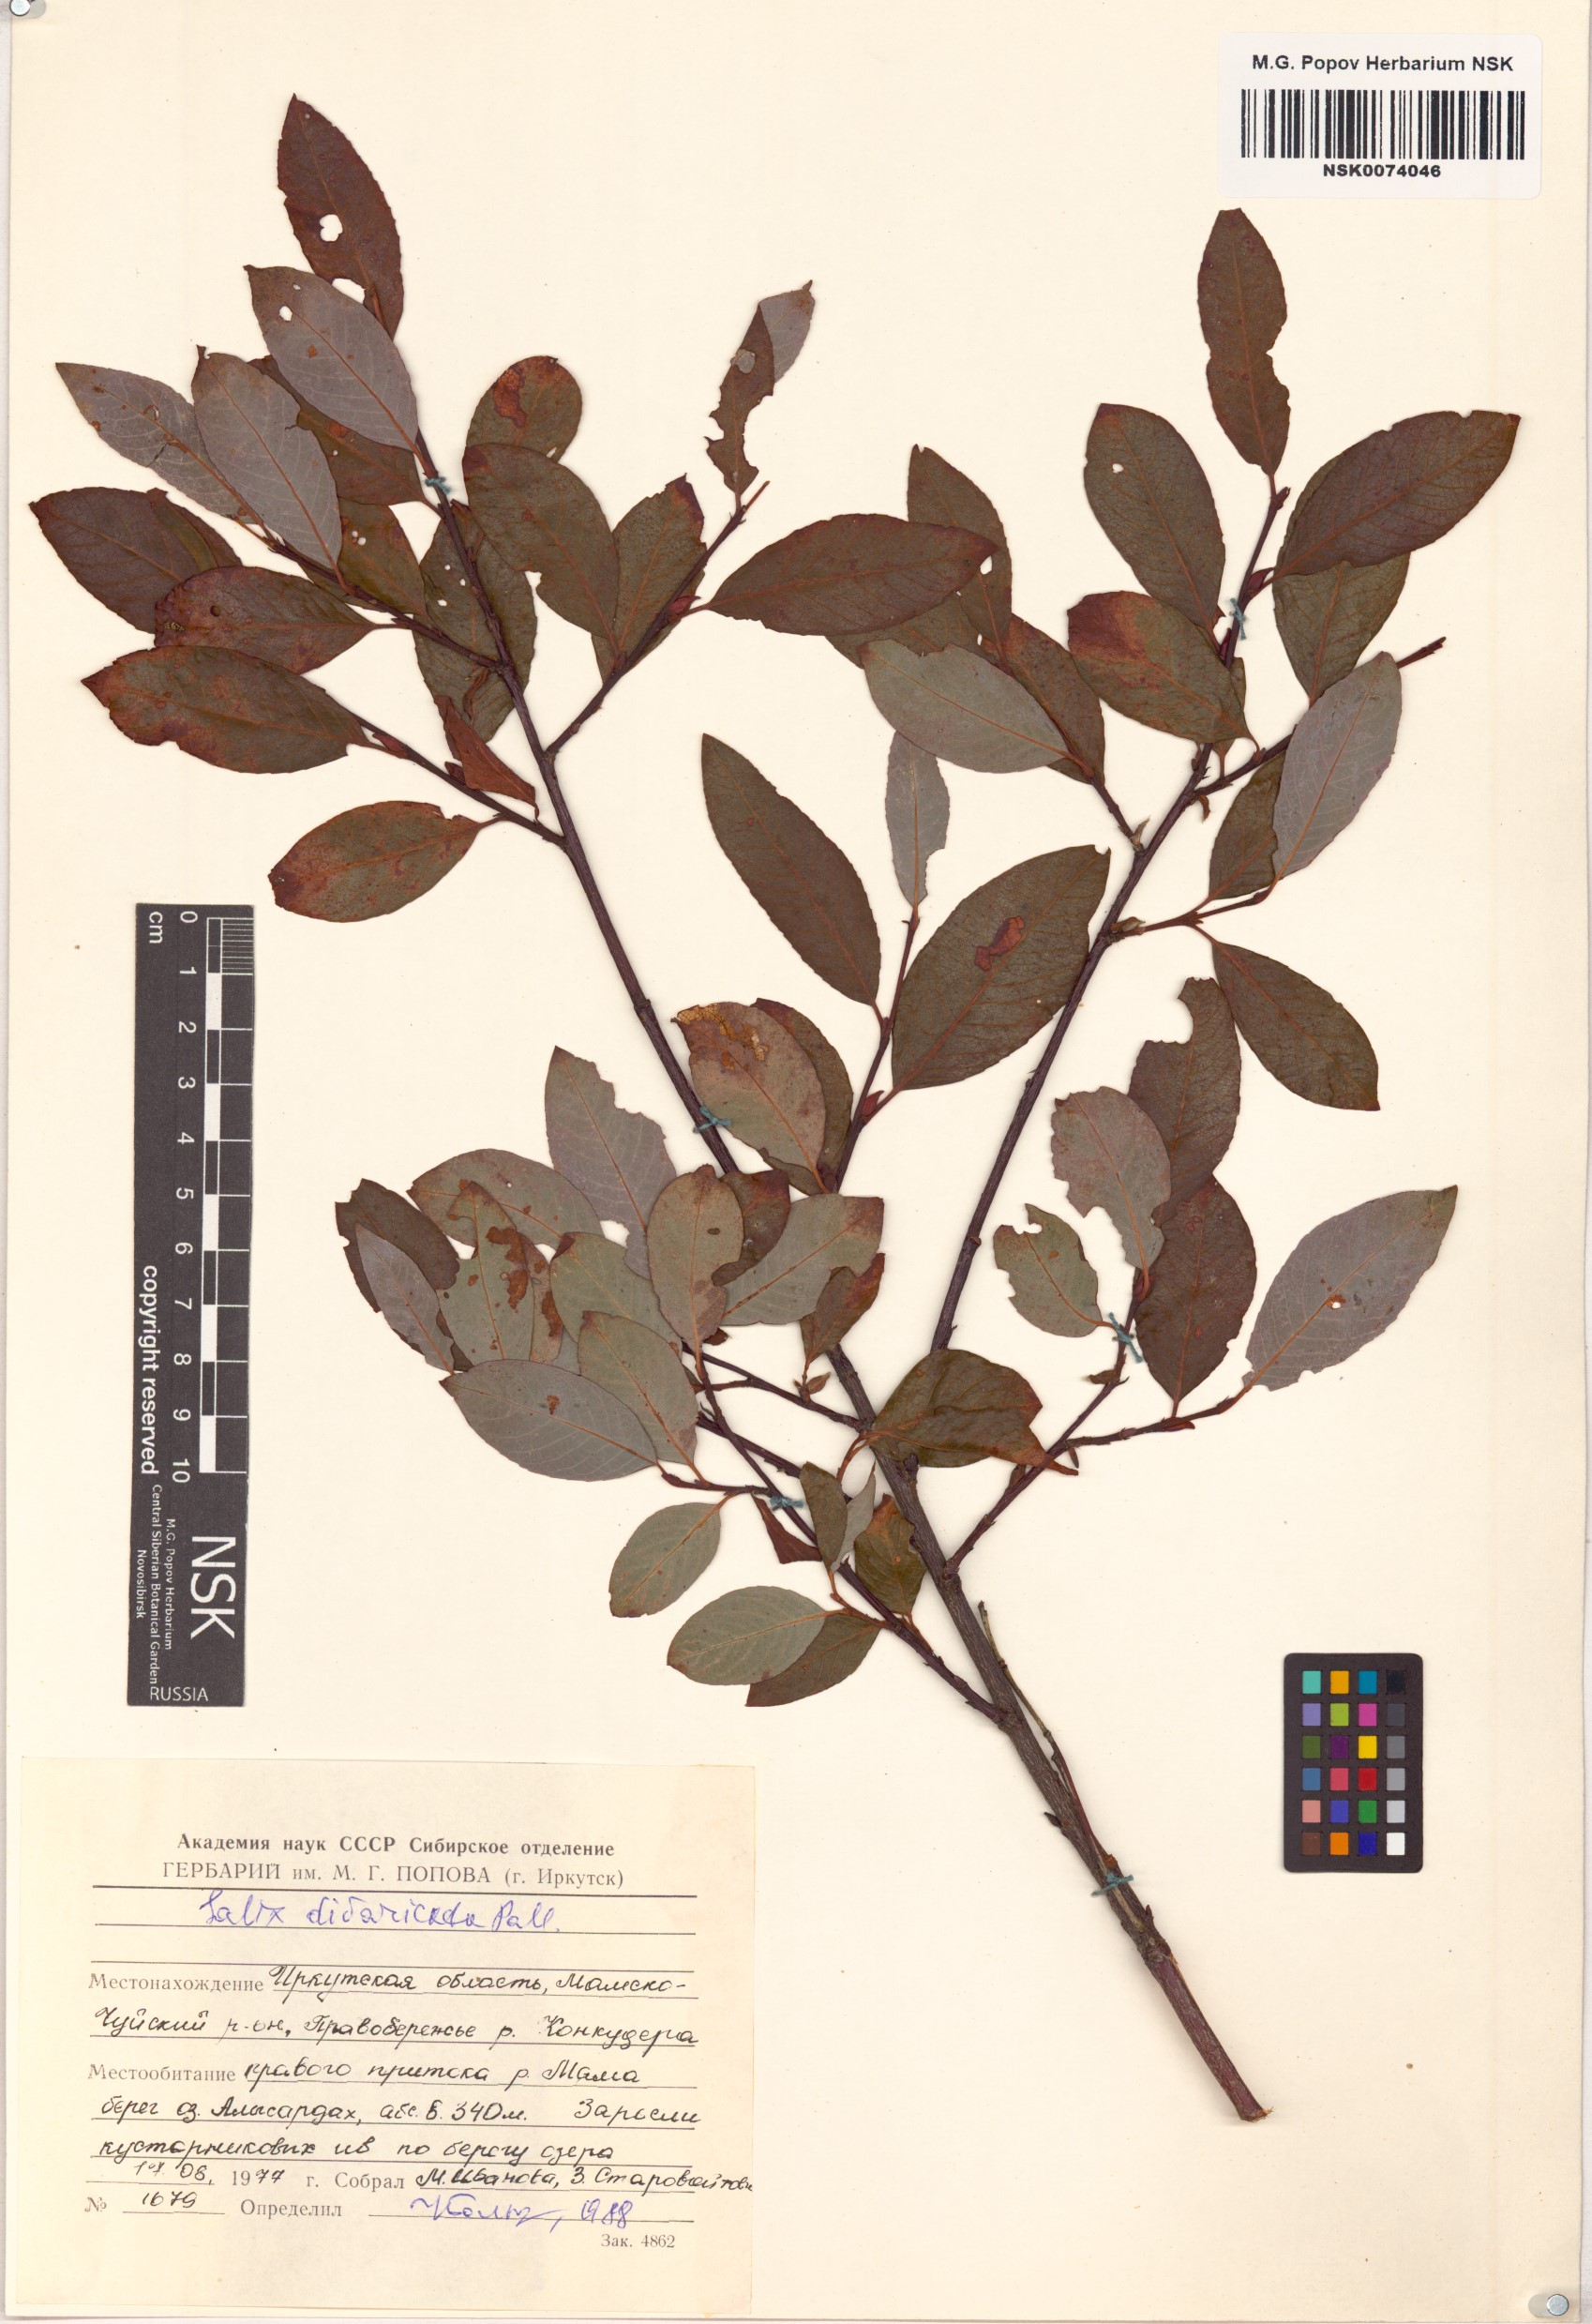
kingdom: Plantae
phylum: Tracheophyta
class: Magnoliopsida
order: Malpighiales
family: Salicaceae
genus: Salix
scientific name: Salix divaricata
